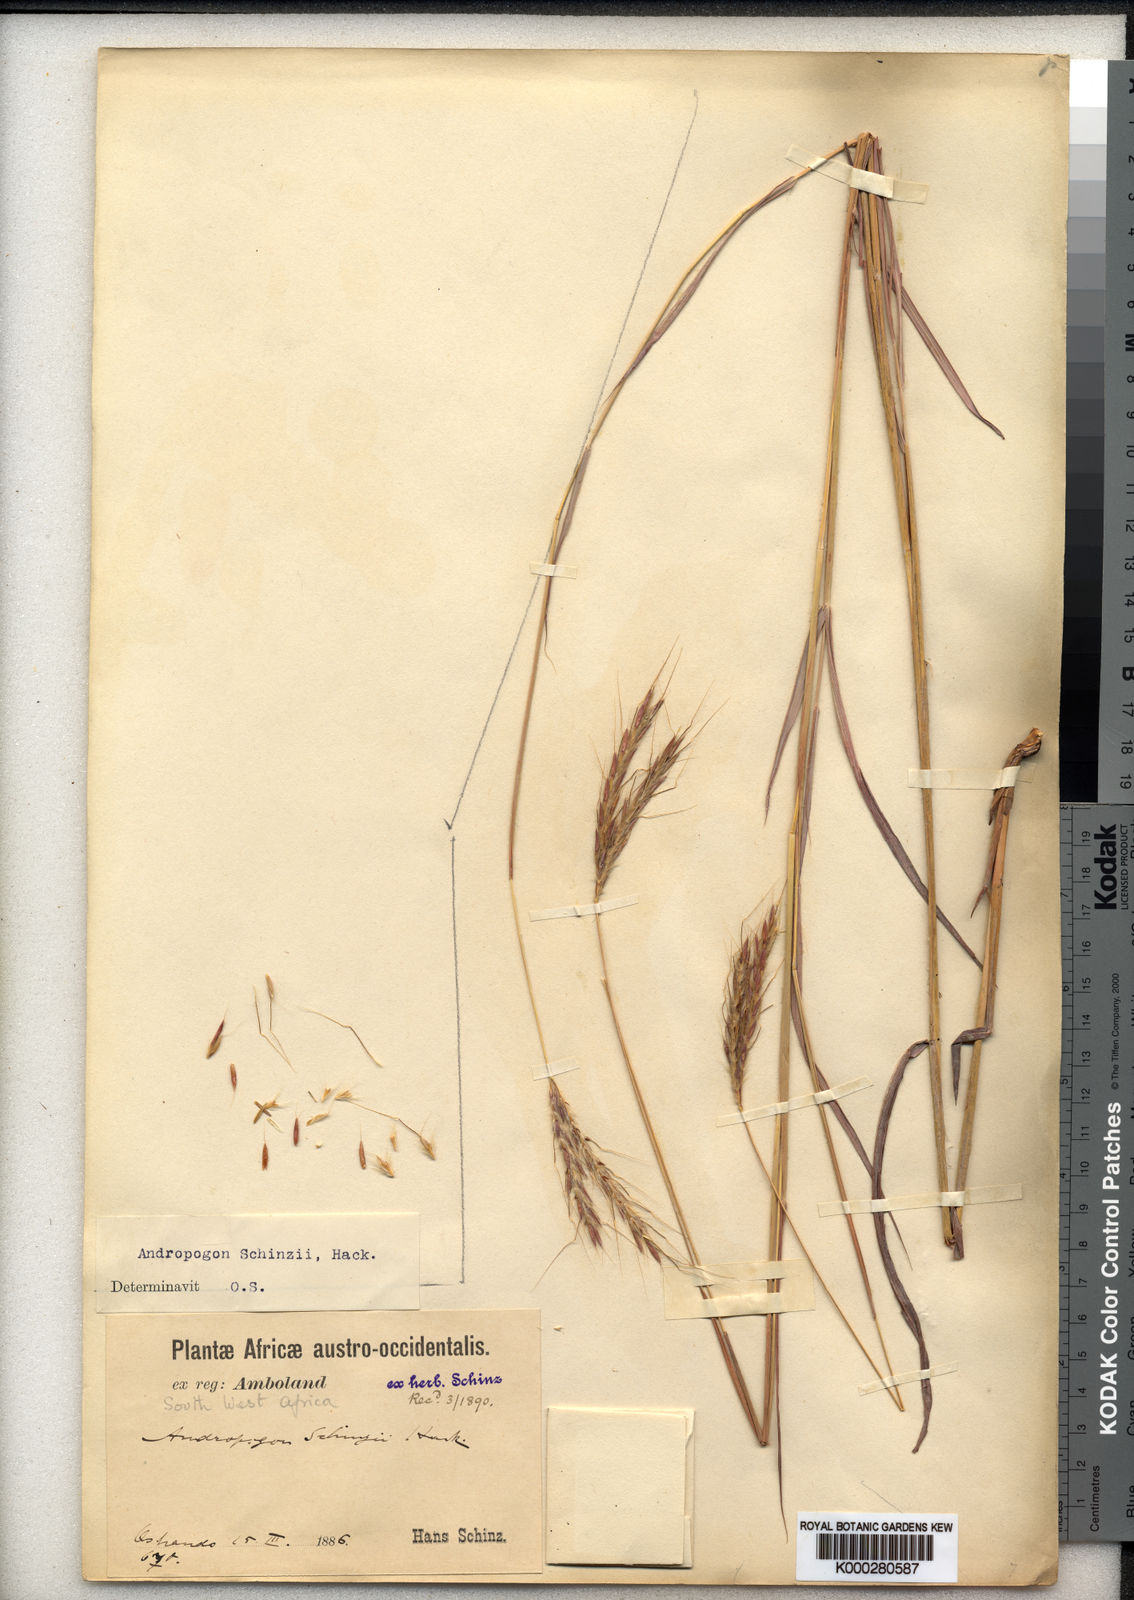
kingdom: Plantae
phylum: Tracheophyta
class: Liliopsida
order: Poales
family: Poaceae
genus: Andropogon
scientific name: Andropogon chinensis
